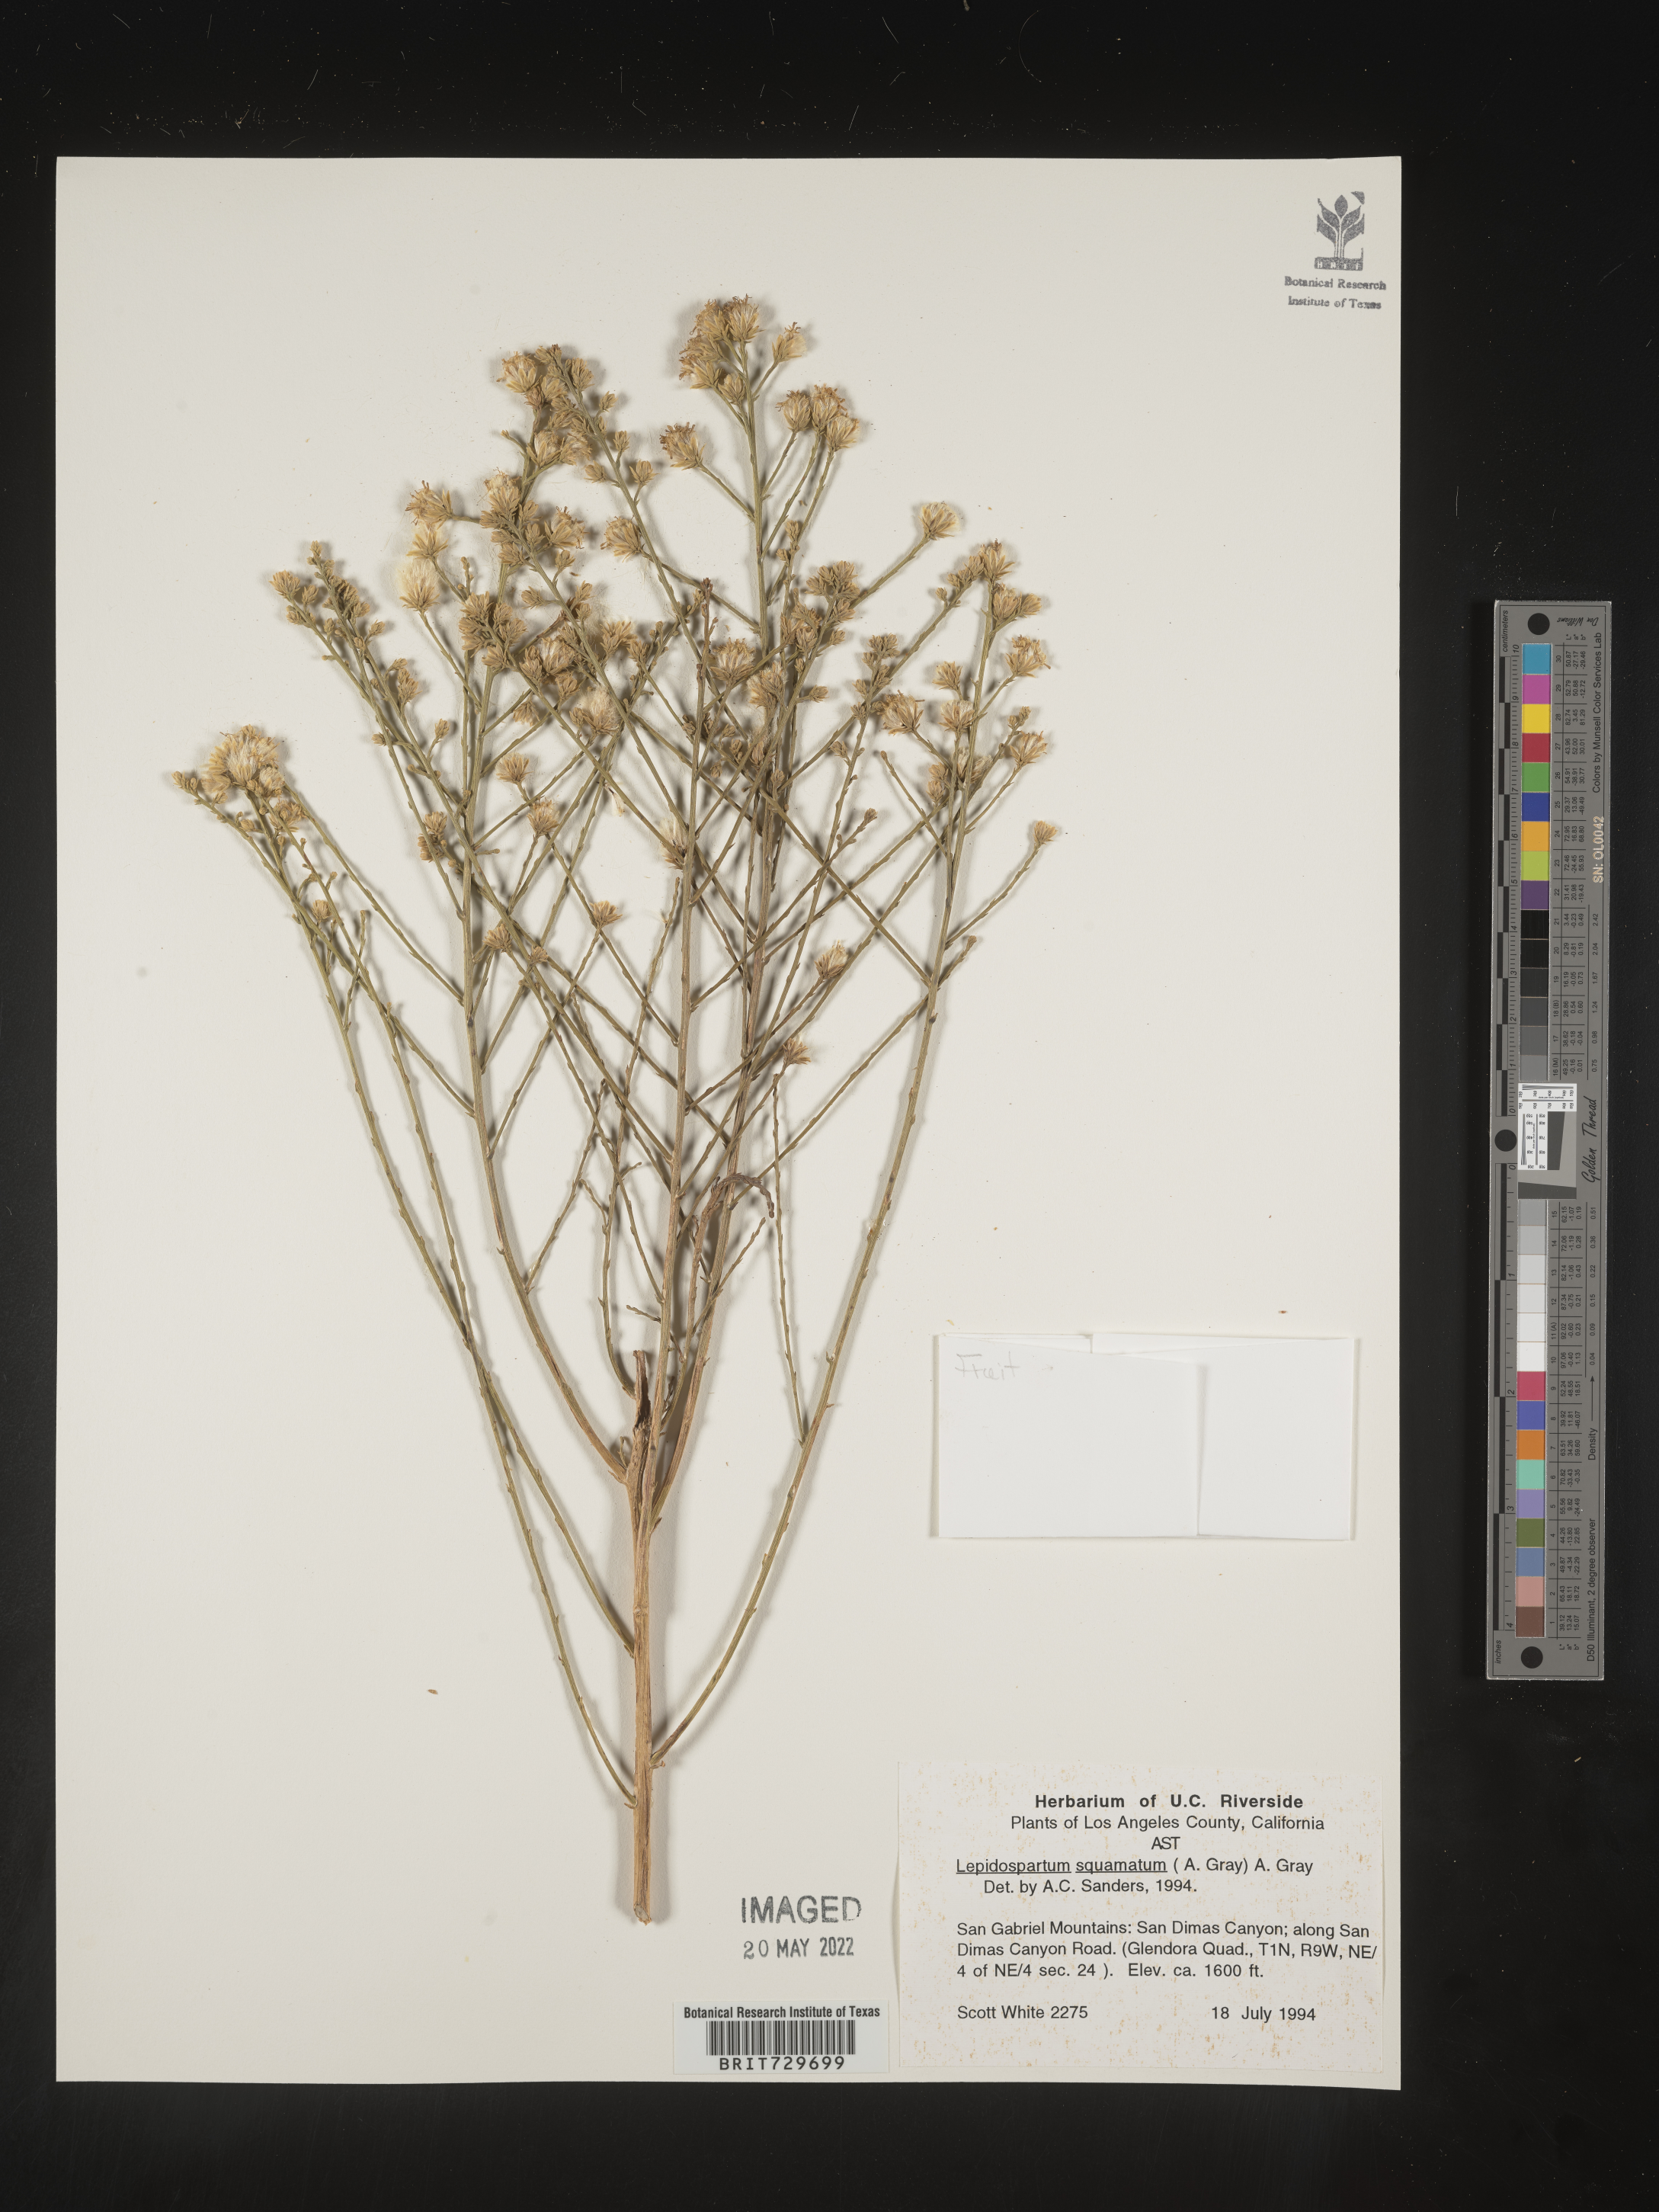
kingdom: Plantae
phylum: Tracheophyta
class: Magnoliopsida
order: Asterales
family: Asteraceae
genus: Lepidospartum
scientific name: Lepidospartum squamatum
